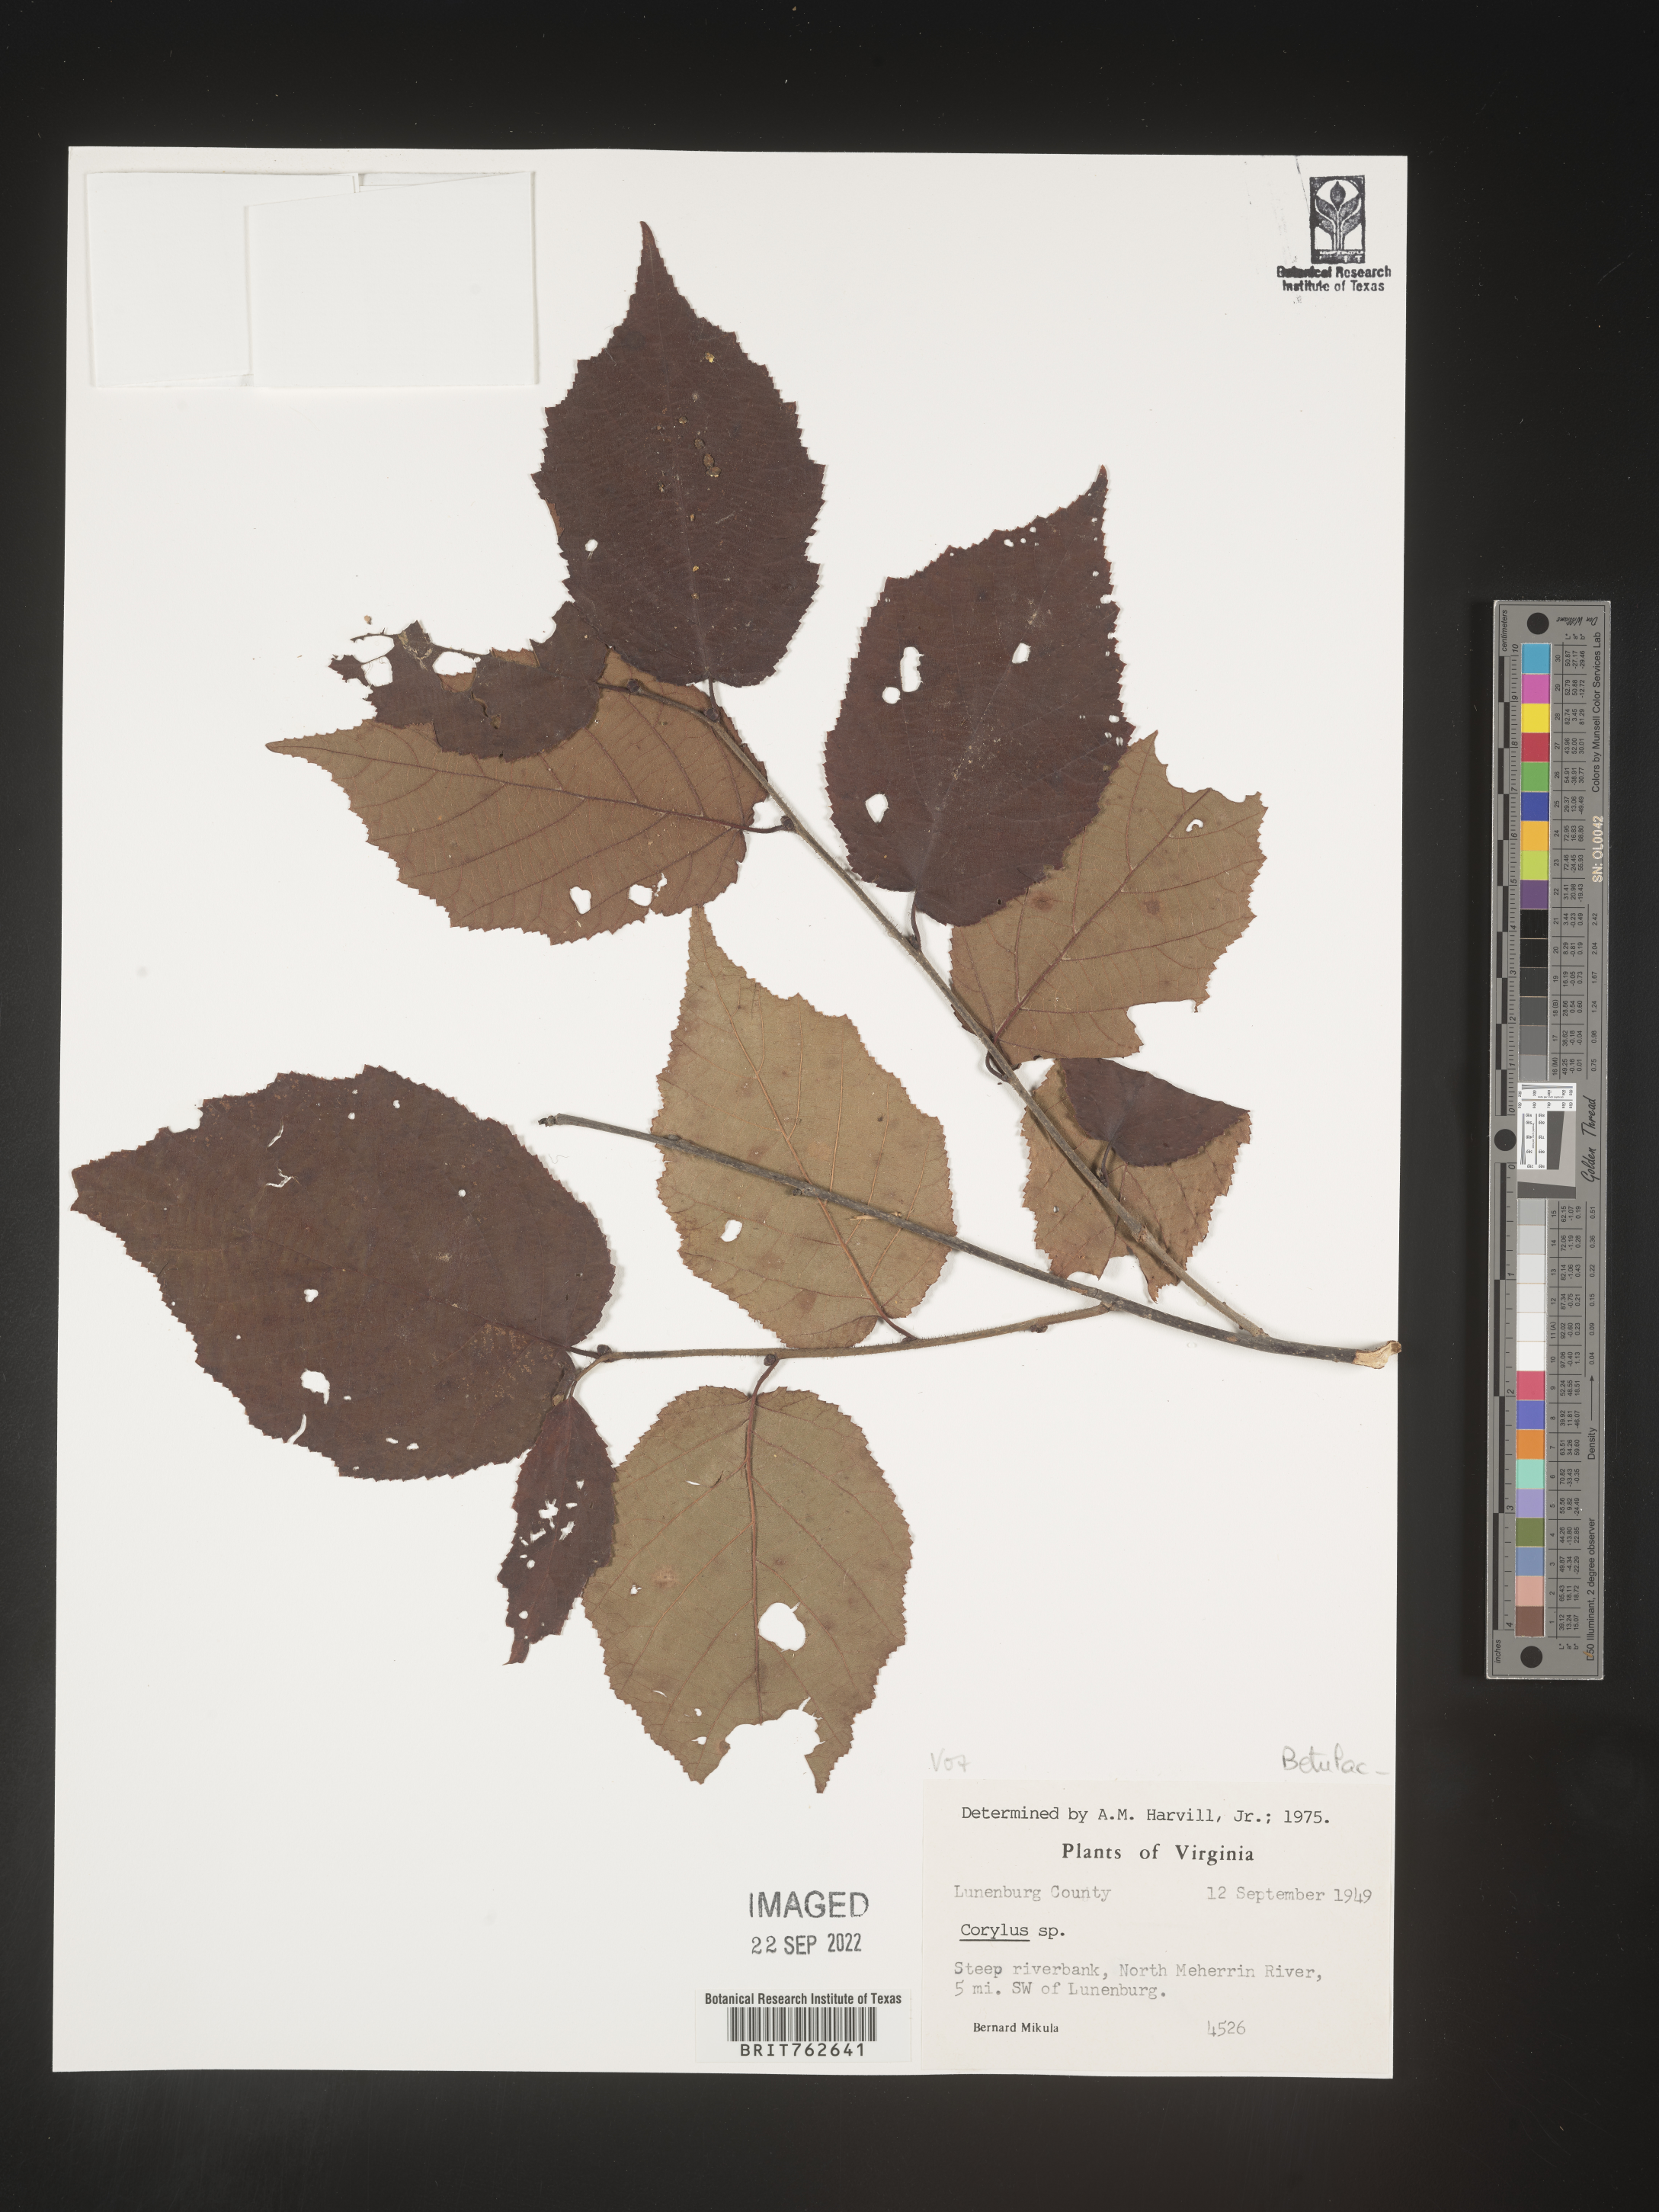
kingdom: Plantae
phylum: Tracheophyta
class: Magnoliopsida
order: Fagales
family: Betulaceae
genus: Corylus
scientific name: Corylus
